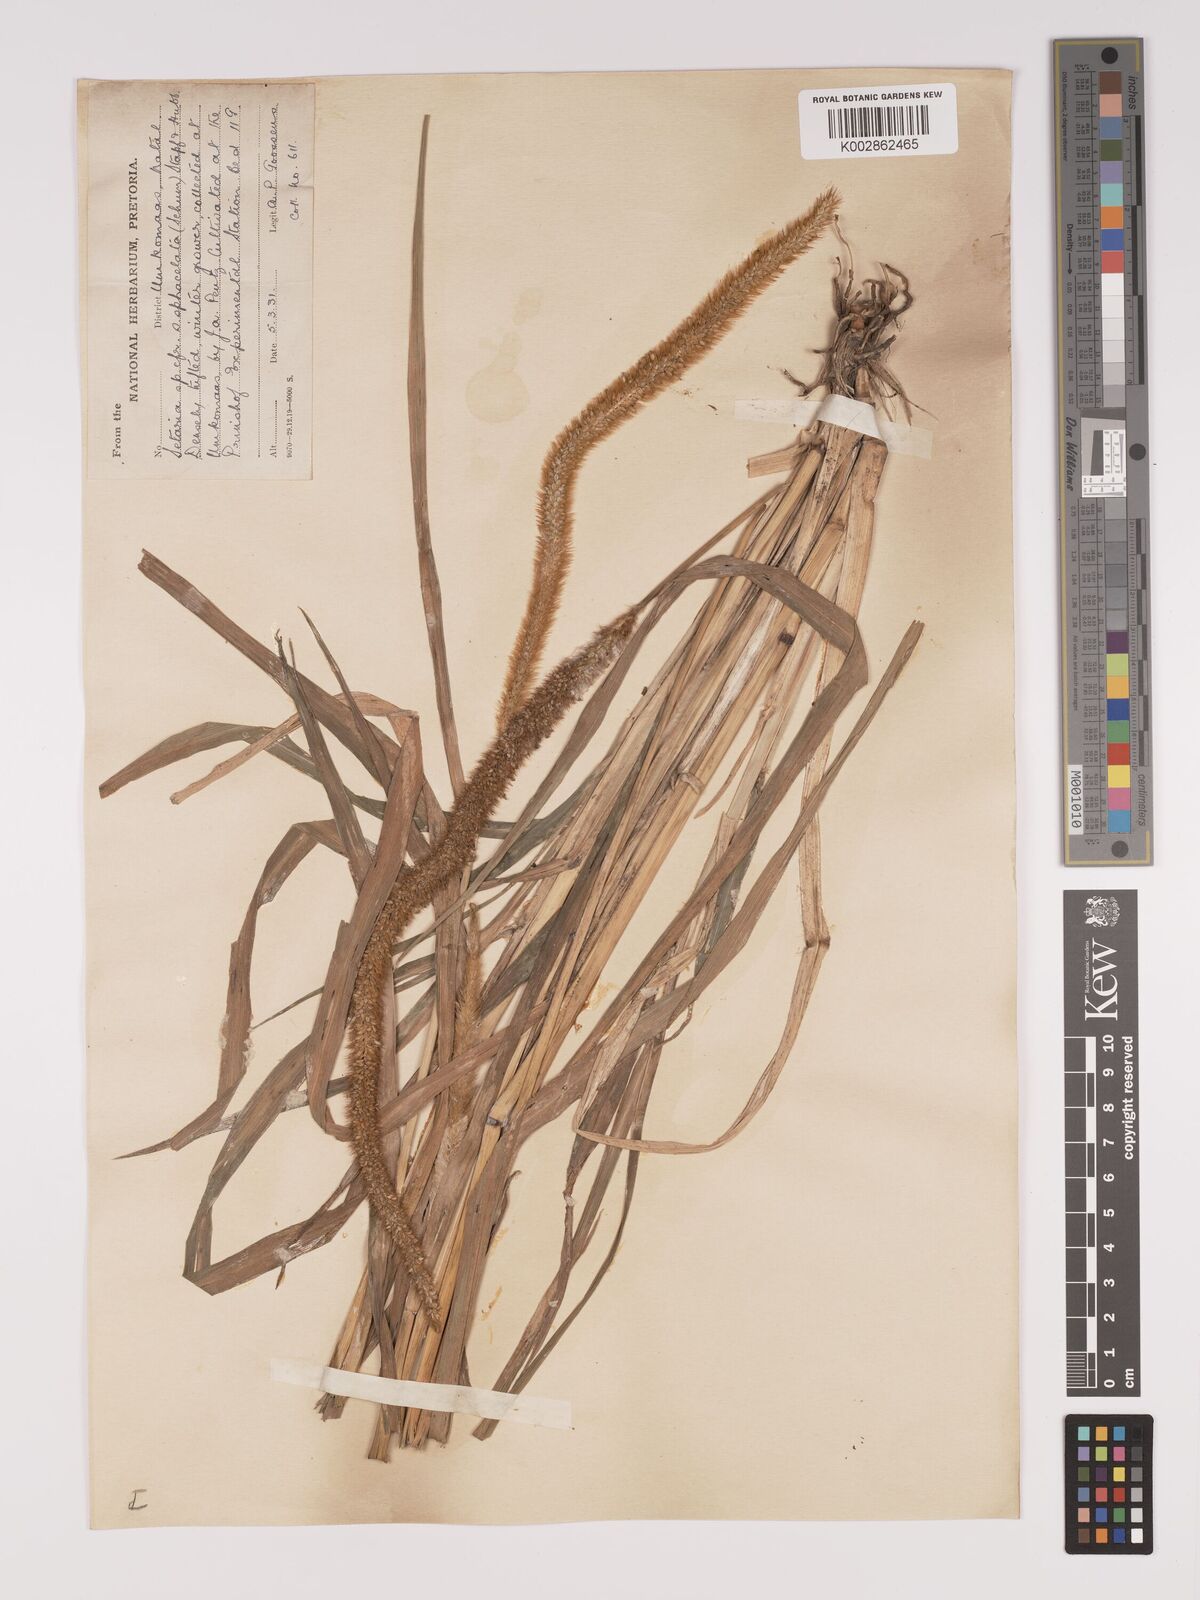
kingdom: Plantae
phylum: Tracheophyta
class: Liliopsida
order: Poales
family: Poaceae
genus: Setaria
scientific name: Setaria sphacelata
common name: African bristlegrass
